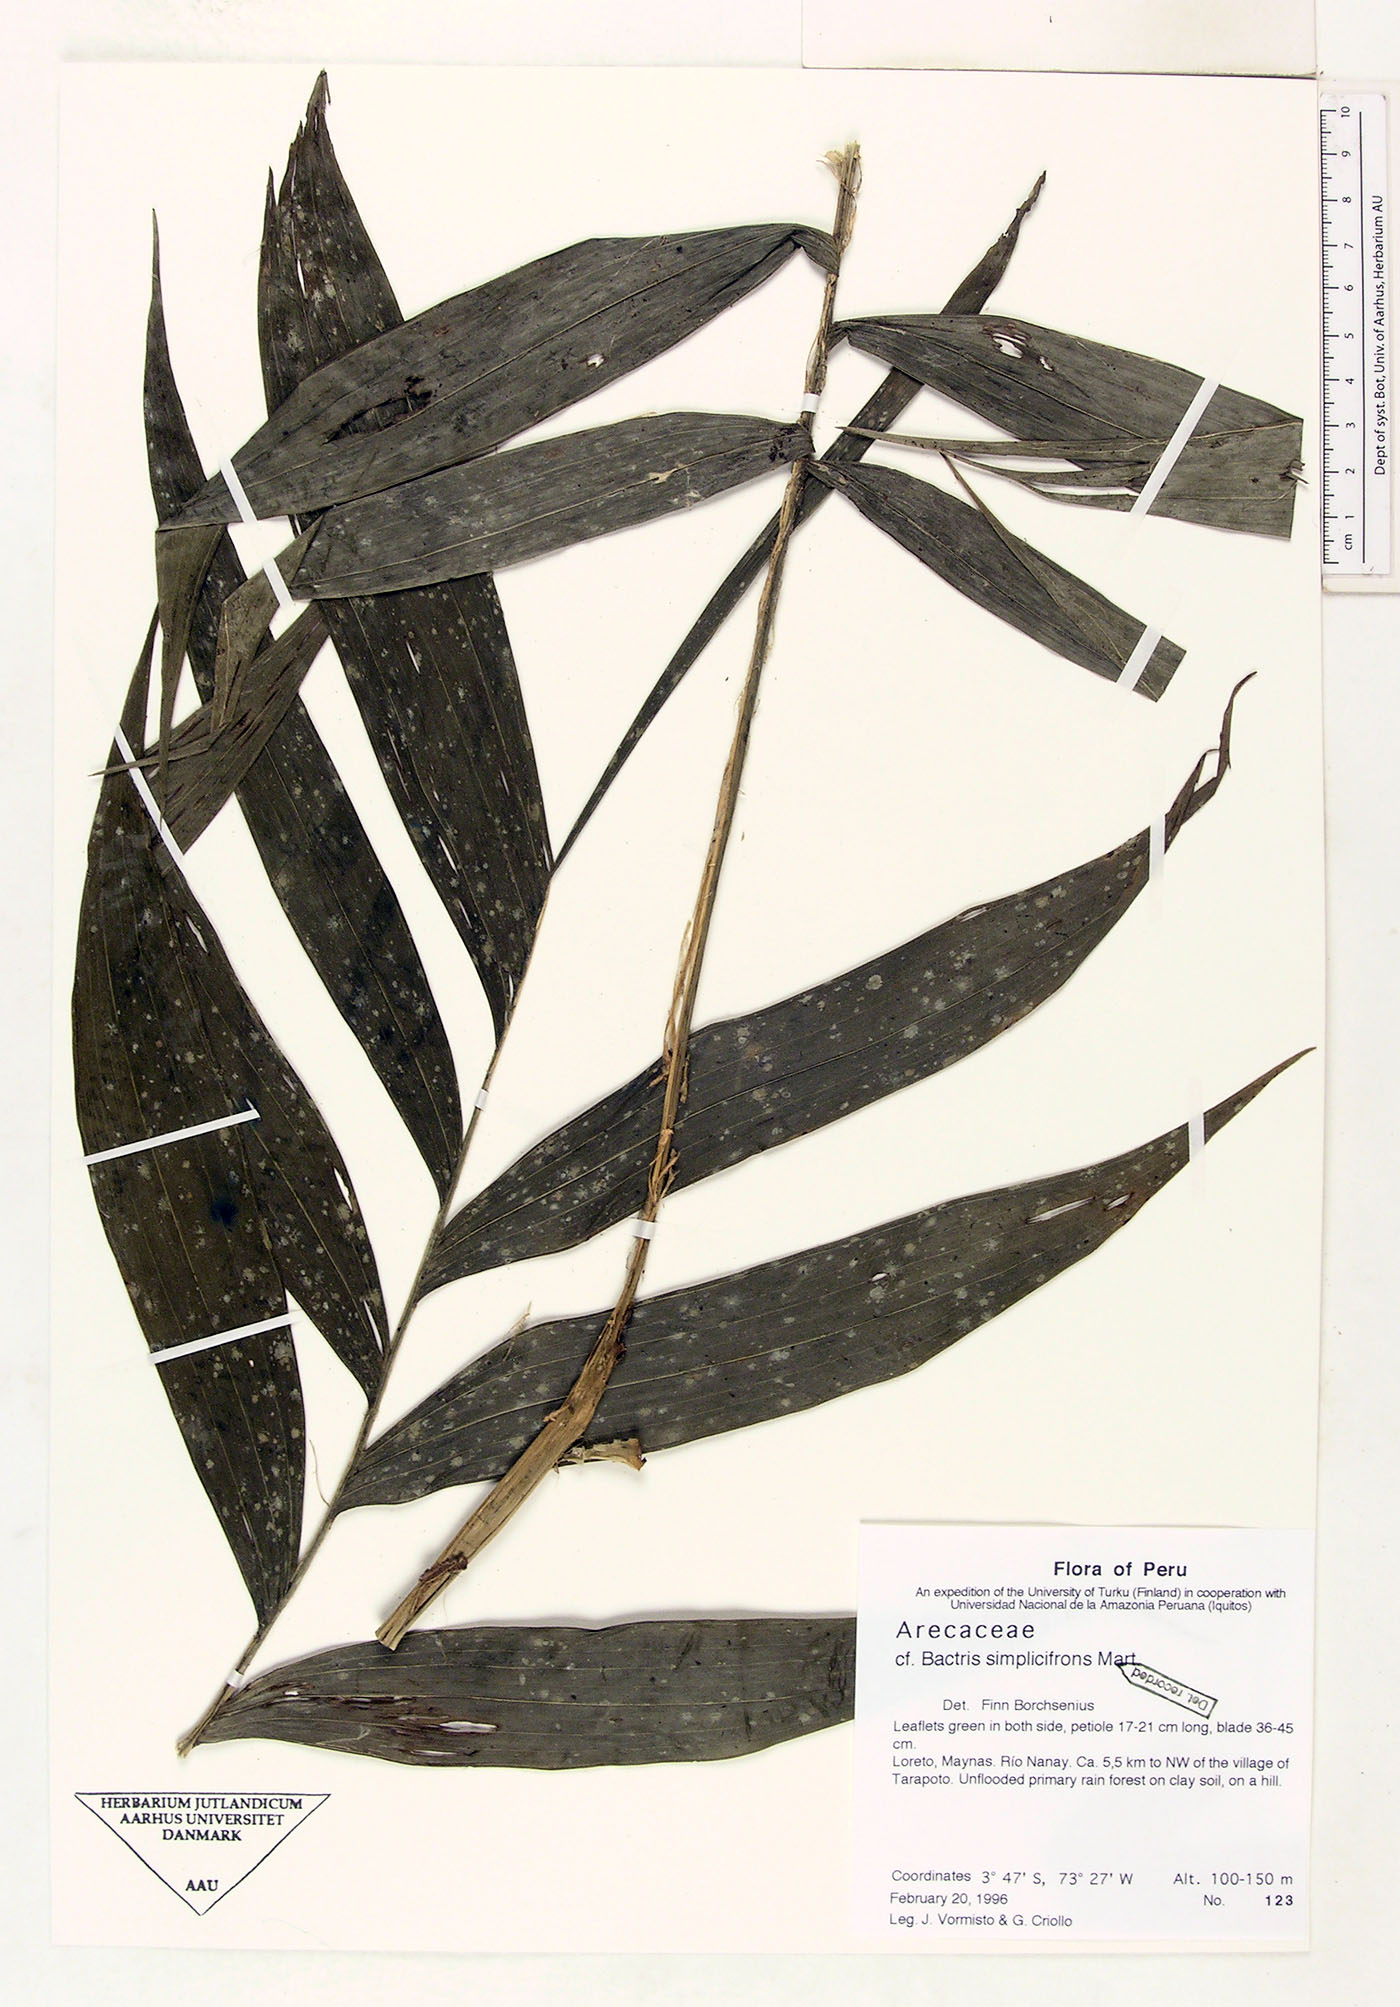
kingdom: Plantae
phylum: Tracheophyta
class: Liliopsida
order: Arecales
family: Arecaceae
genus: Bactris
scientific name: Bactris simplicifrons
